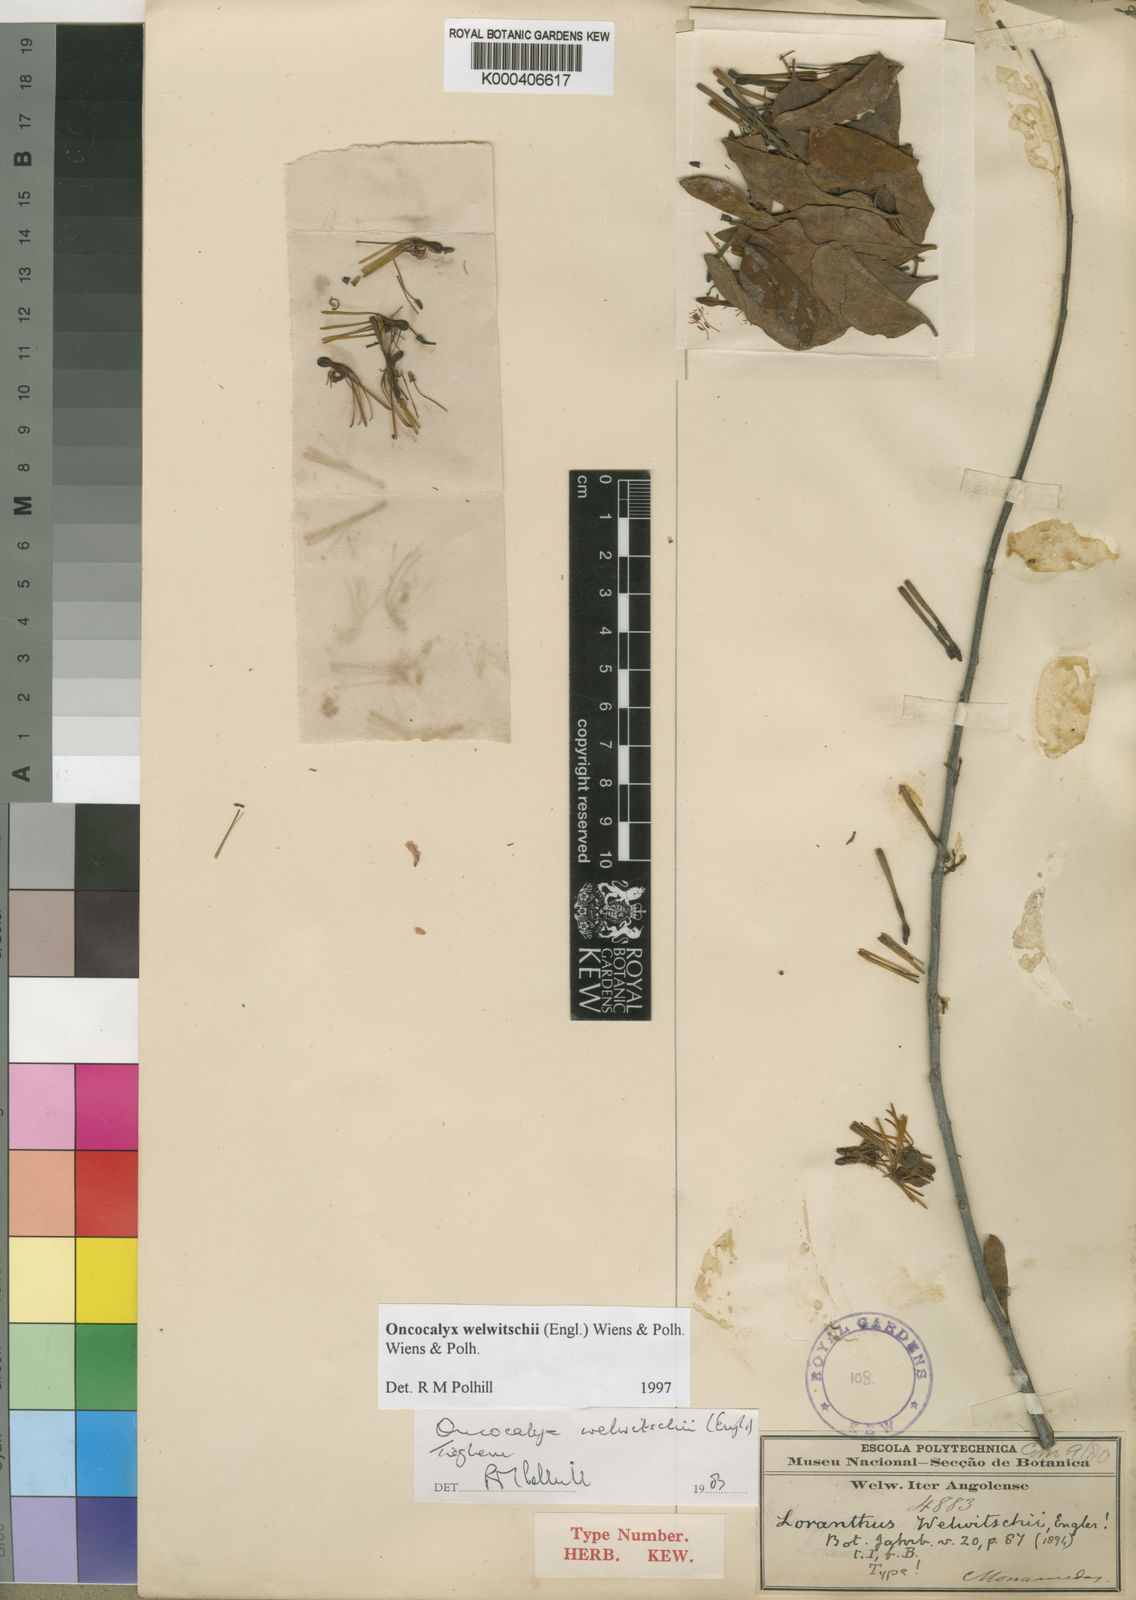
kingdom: Plantae
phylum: Tracheophyta
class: Magnoliopsida
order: Santalales
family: Loranthaceae
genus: Loranthella
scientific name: Loranthella welwitschii
